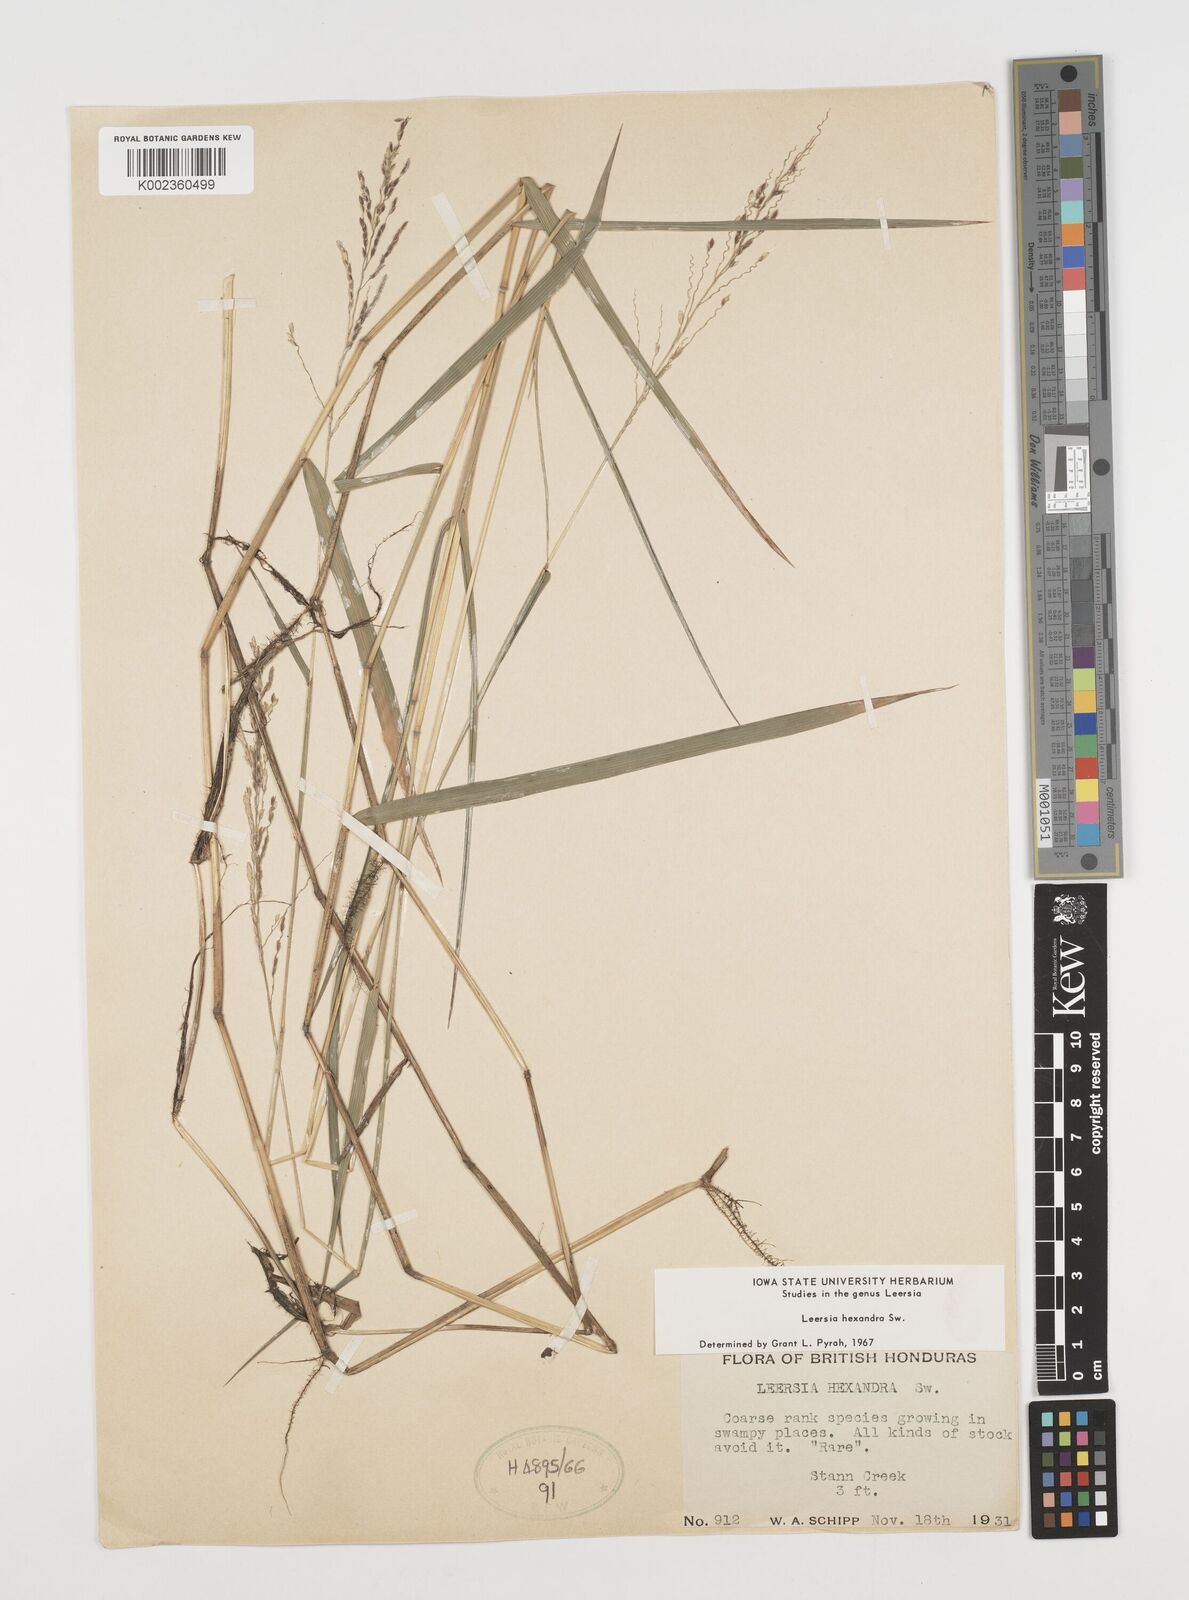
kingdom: Plantae
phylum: Tracheophyta
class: Liliopsida
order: Poales
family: Poaceae
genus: Leersia
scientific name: Leersia hexandra
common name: Southern cut grass
